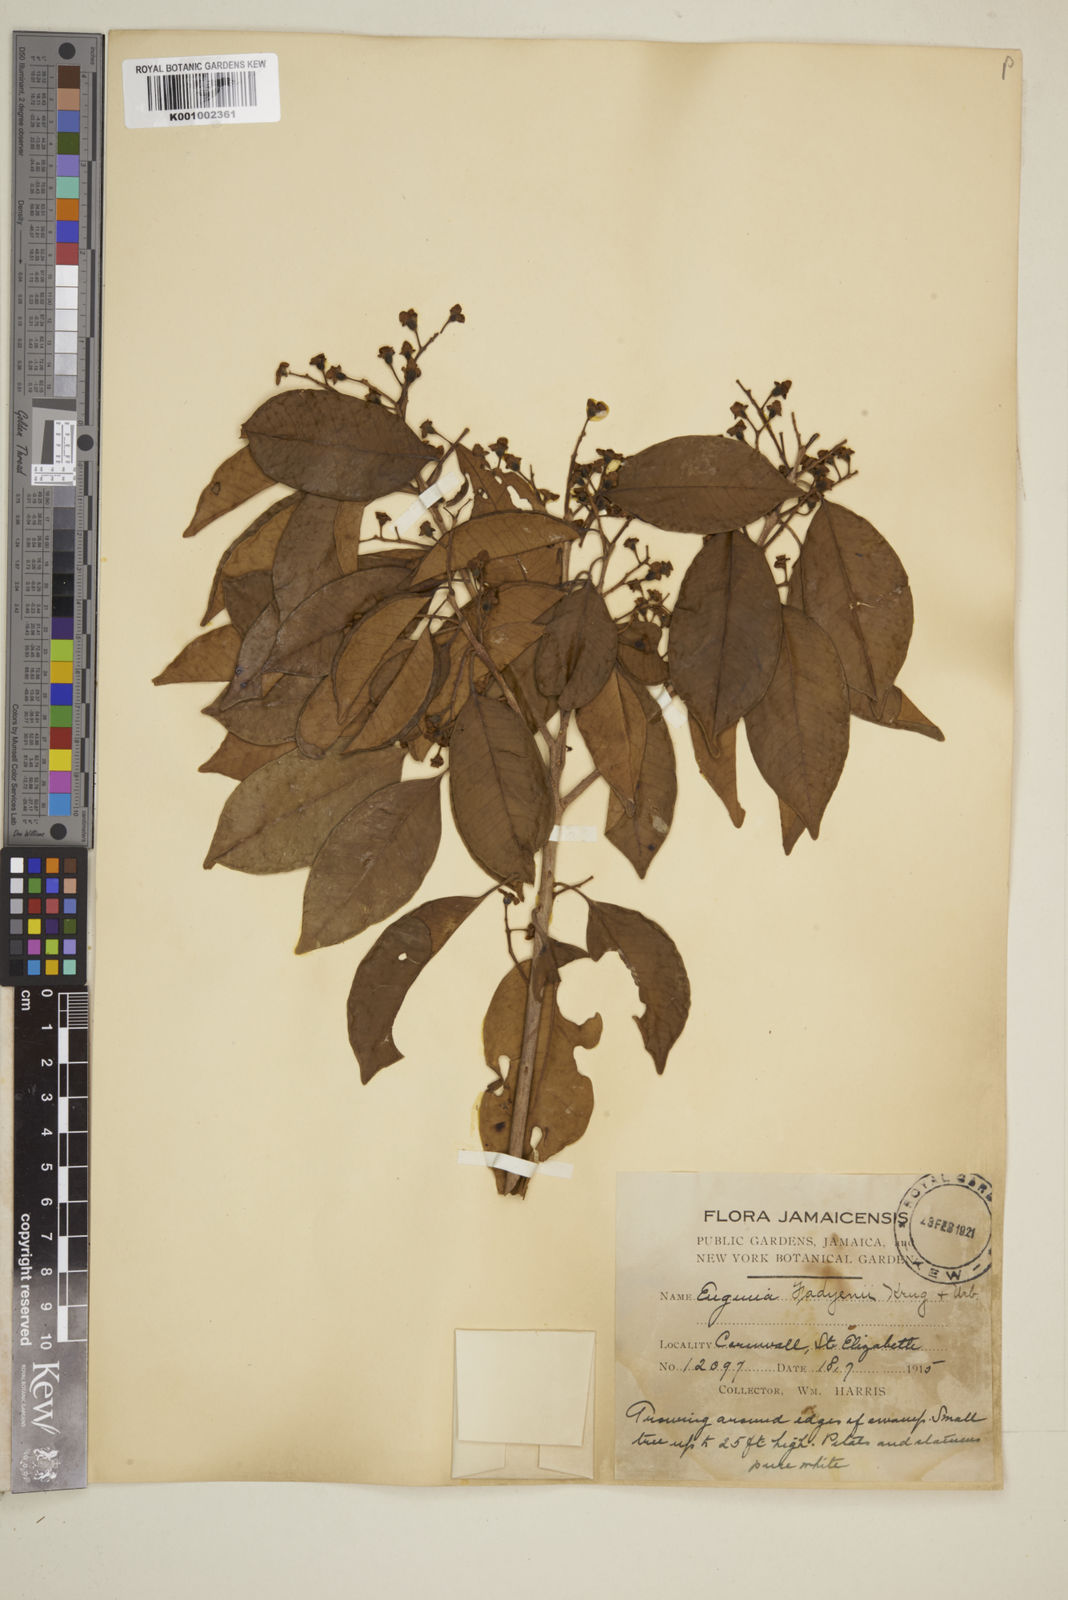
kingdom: Plantae
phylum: Tracheophyta
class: Magnoliopsida
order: Myrtales
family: Myrtaceae
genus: Eugenia
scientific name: Eugenia aeruginea
